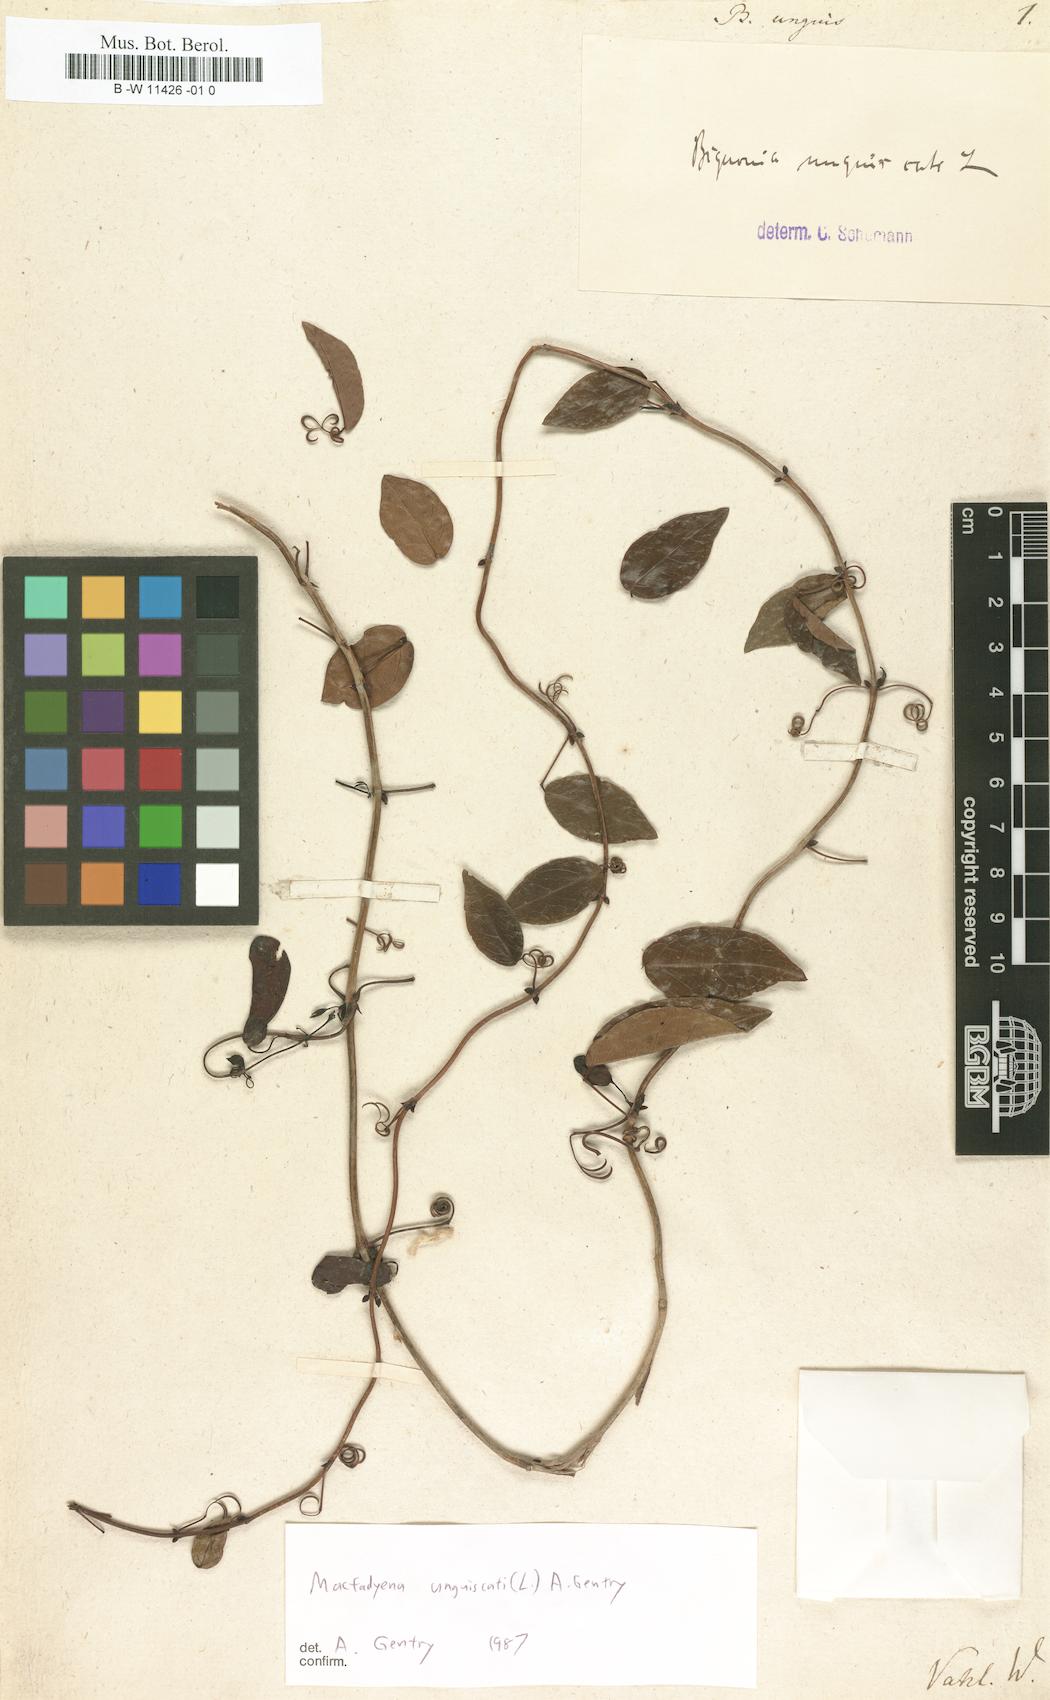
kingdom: Plantae
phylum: Tracheophyta
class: Magnoliopsida
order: Lamiales
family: Bignoniaceae
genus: Dolichandra
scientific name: Dolichandra unguis-cati
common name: Catclaw vine
